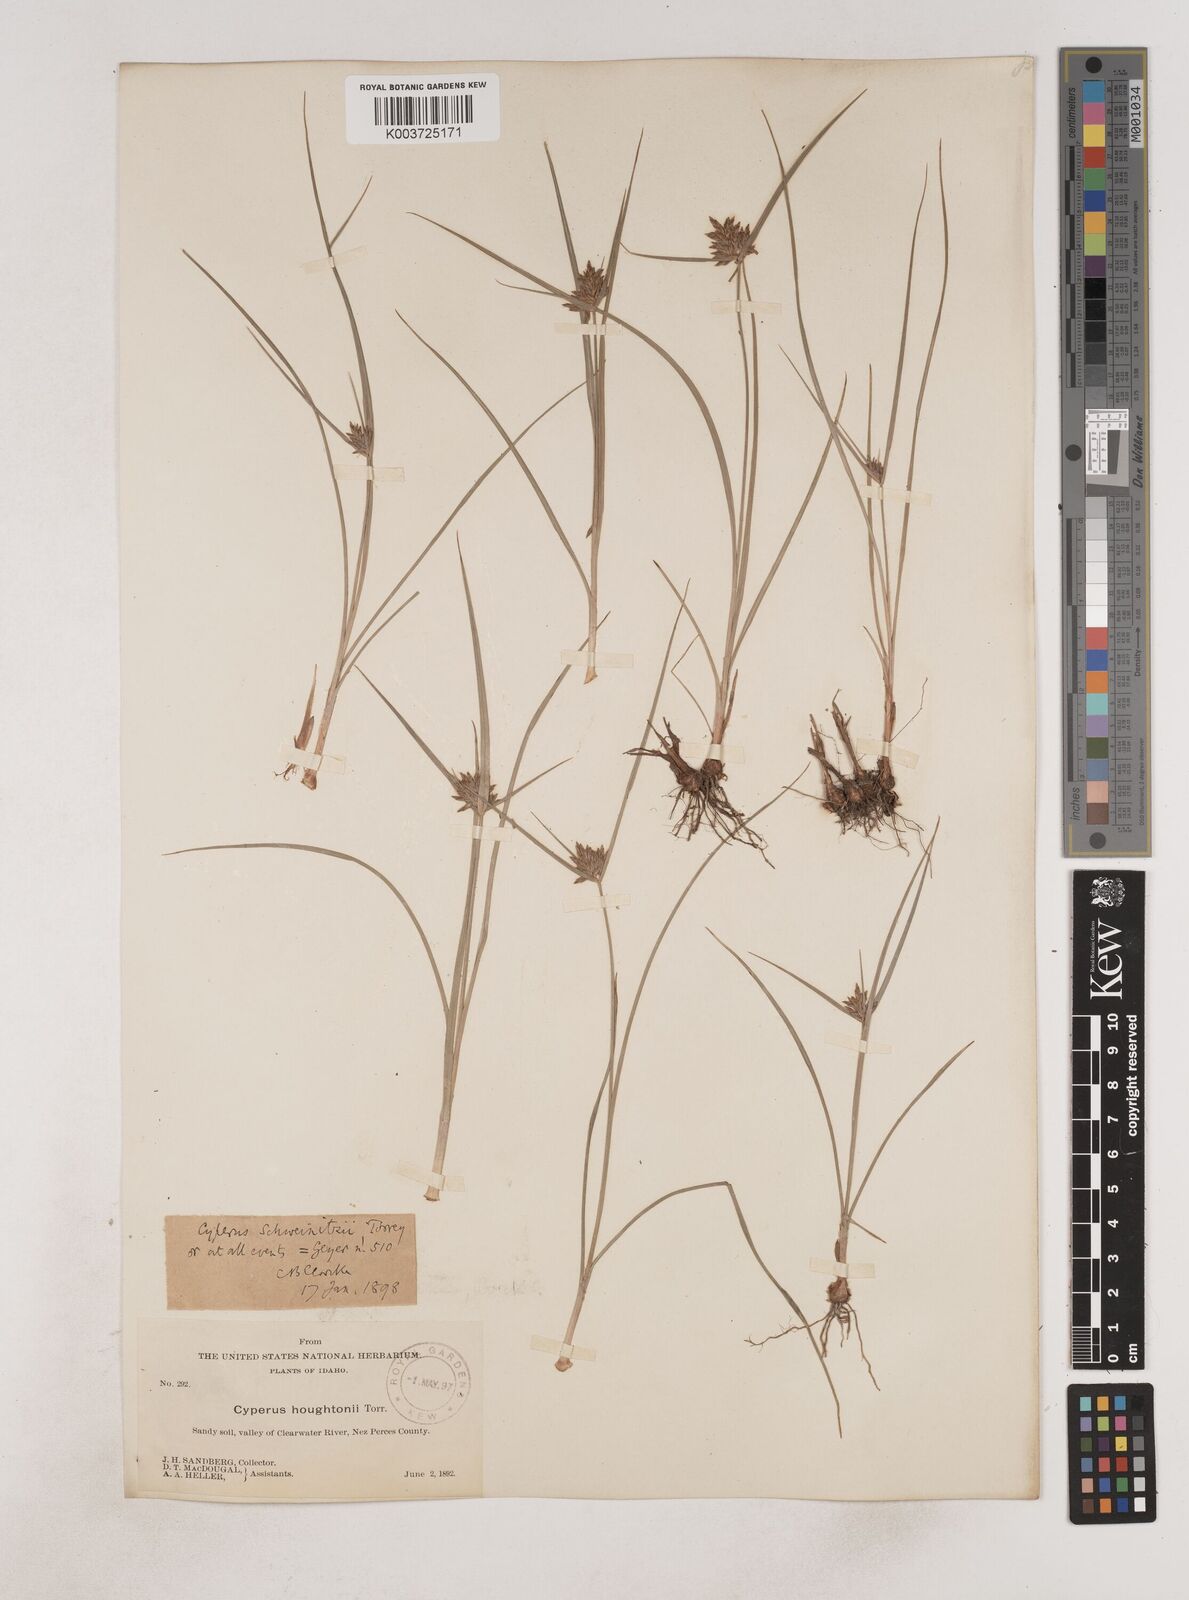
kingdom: Plantae
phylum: Tracheophyta
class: Liliopsida
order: Poales
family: Cyperaceae
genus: Cyperus
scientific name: Cyperus schweinitzii
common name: Schweinitz's cyperus
